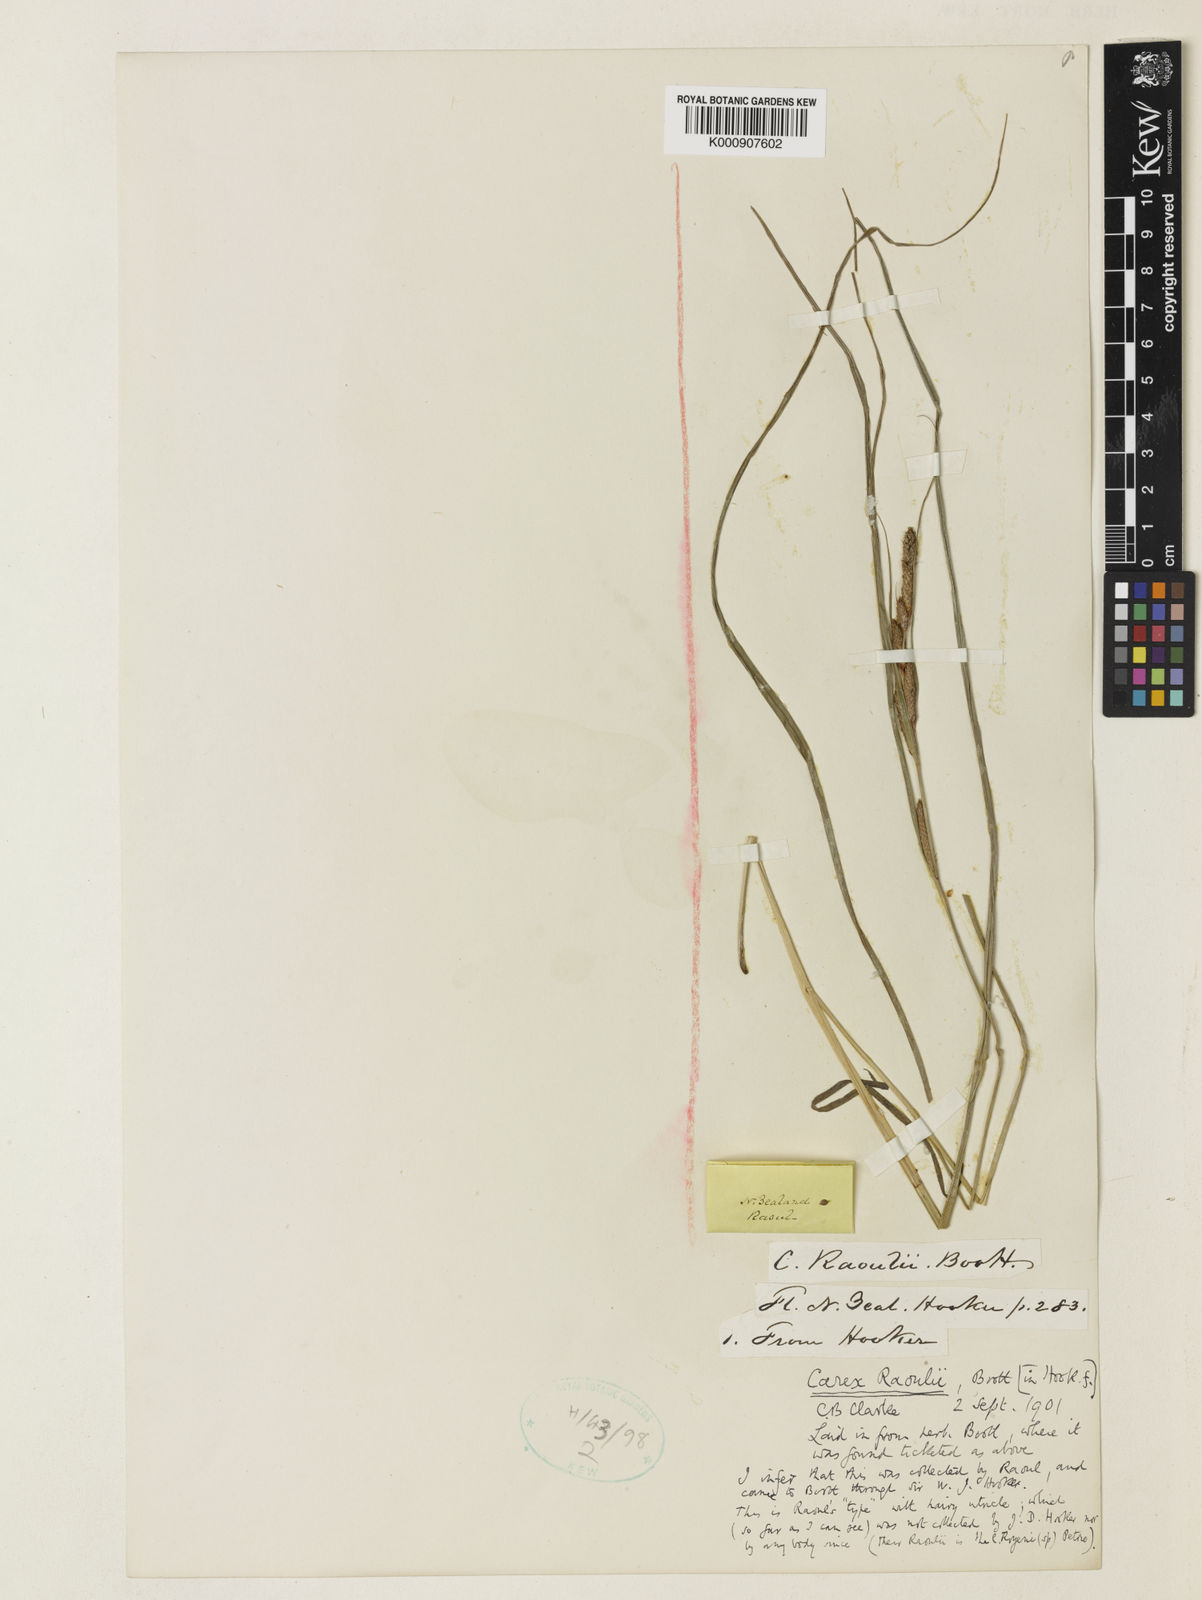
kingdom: Plantae
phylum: Tracheophyta
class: Liliopsida
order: Poales
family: Cyperaceae
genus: Carex
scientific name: Carex raoulii
